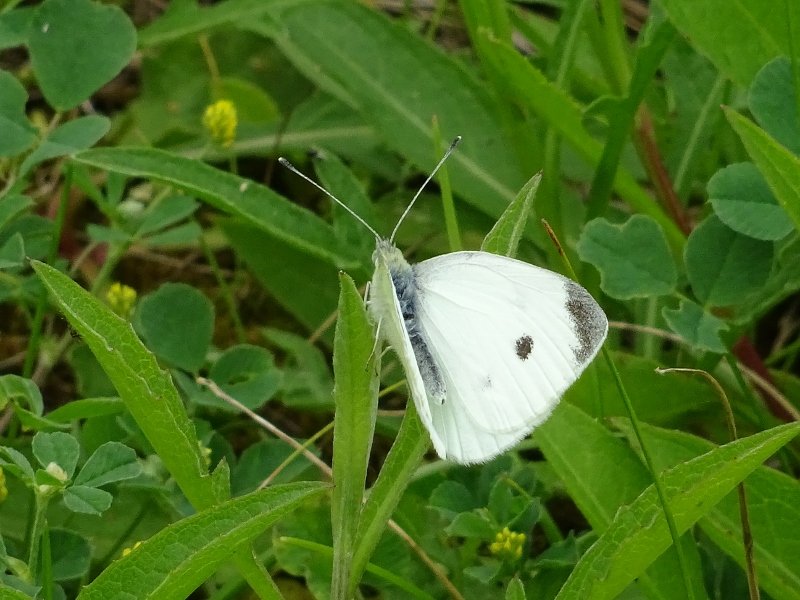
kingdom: Animalia
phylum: Arthropoda
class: Insecta
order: Lepidoptera
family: Pieridae
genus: Pieris
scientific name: Pieris rapae
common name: Cabbage White
